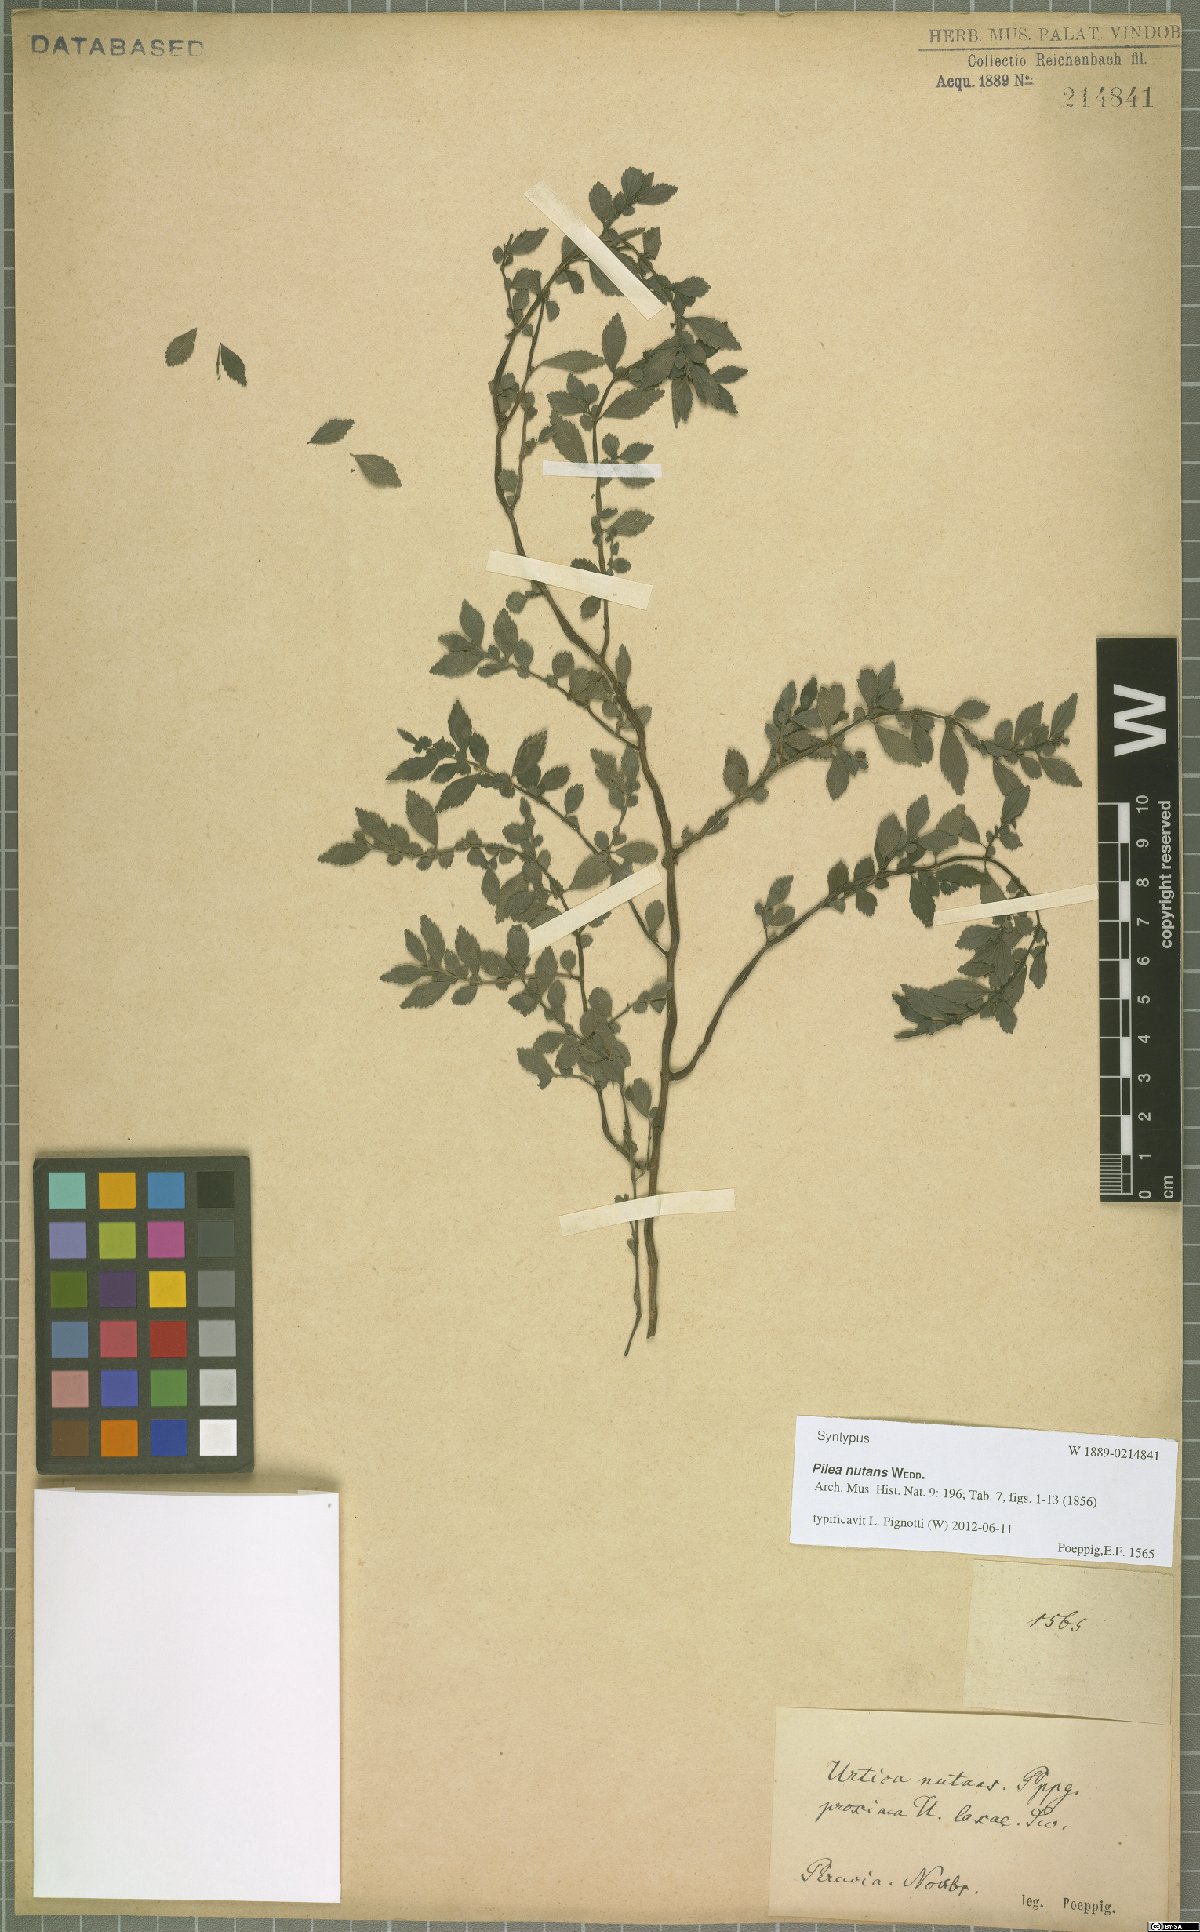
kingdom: Plantae
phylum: Tracheophyta
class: Magnoliopsida
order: Rosales
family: Urticaceae
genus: Pilea
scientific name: Pilea nutans
